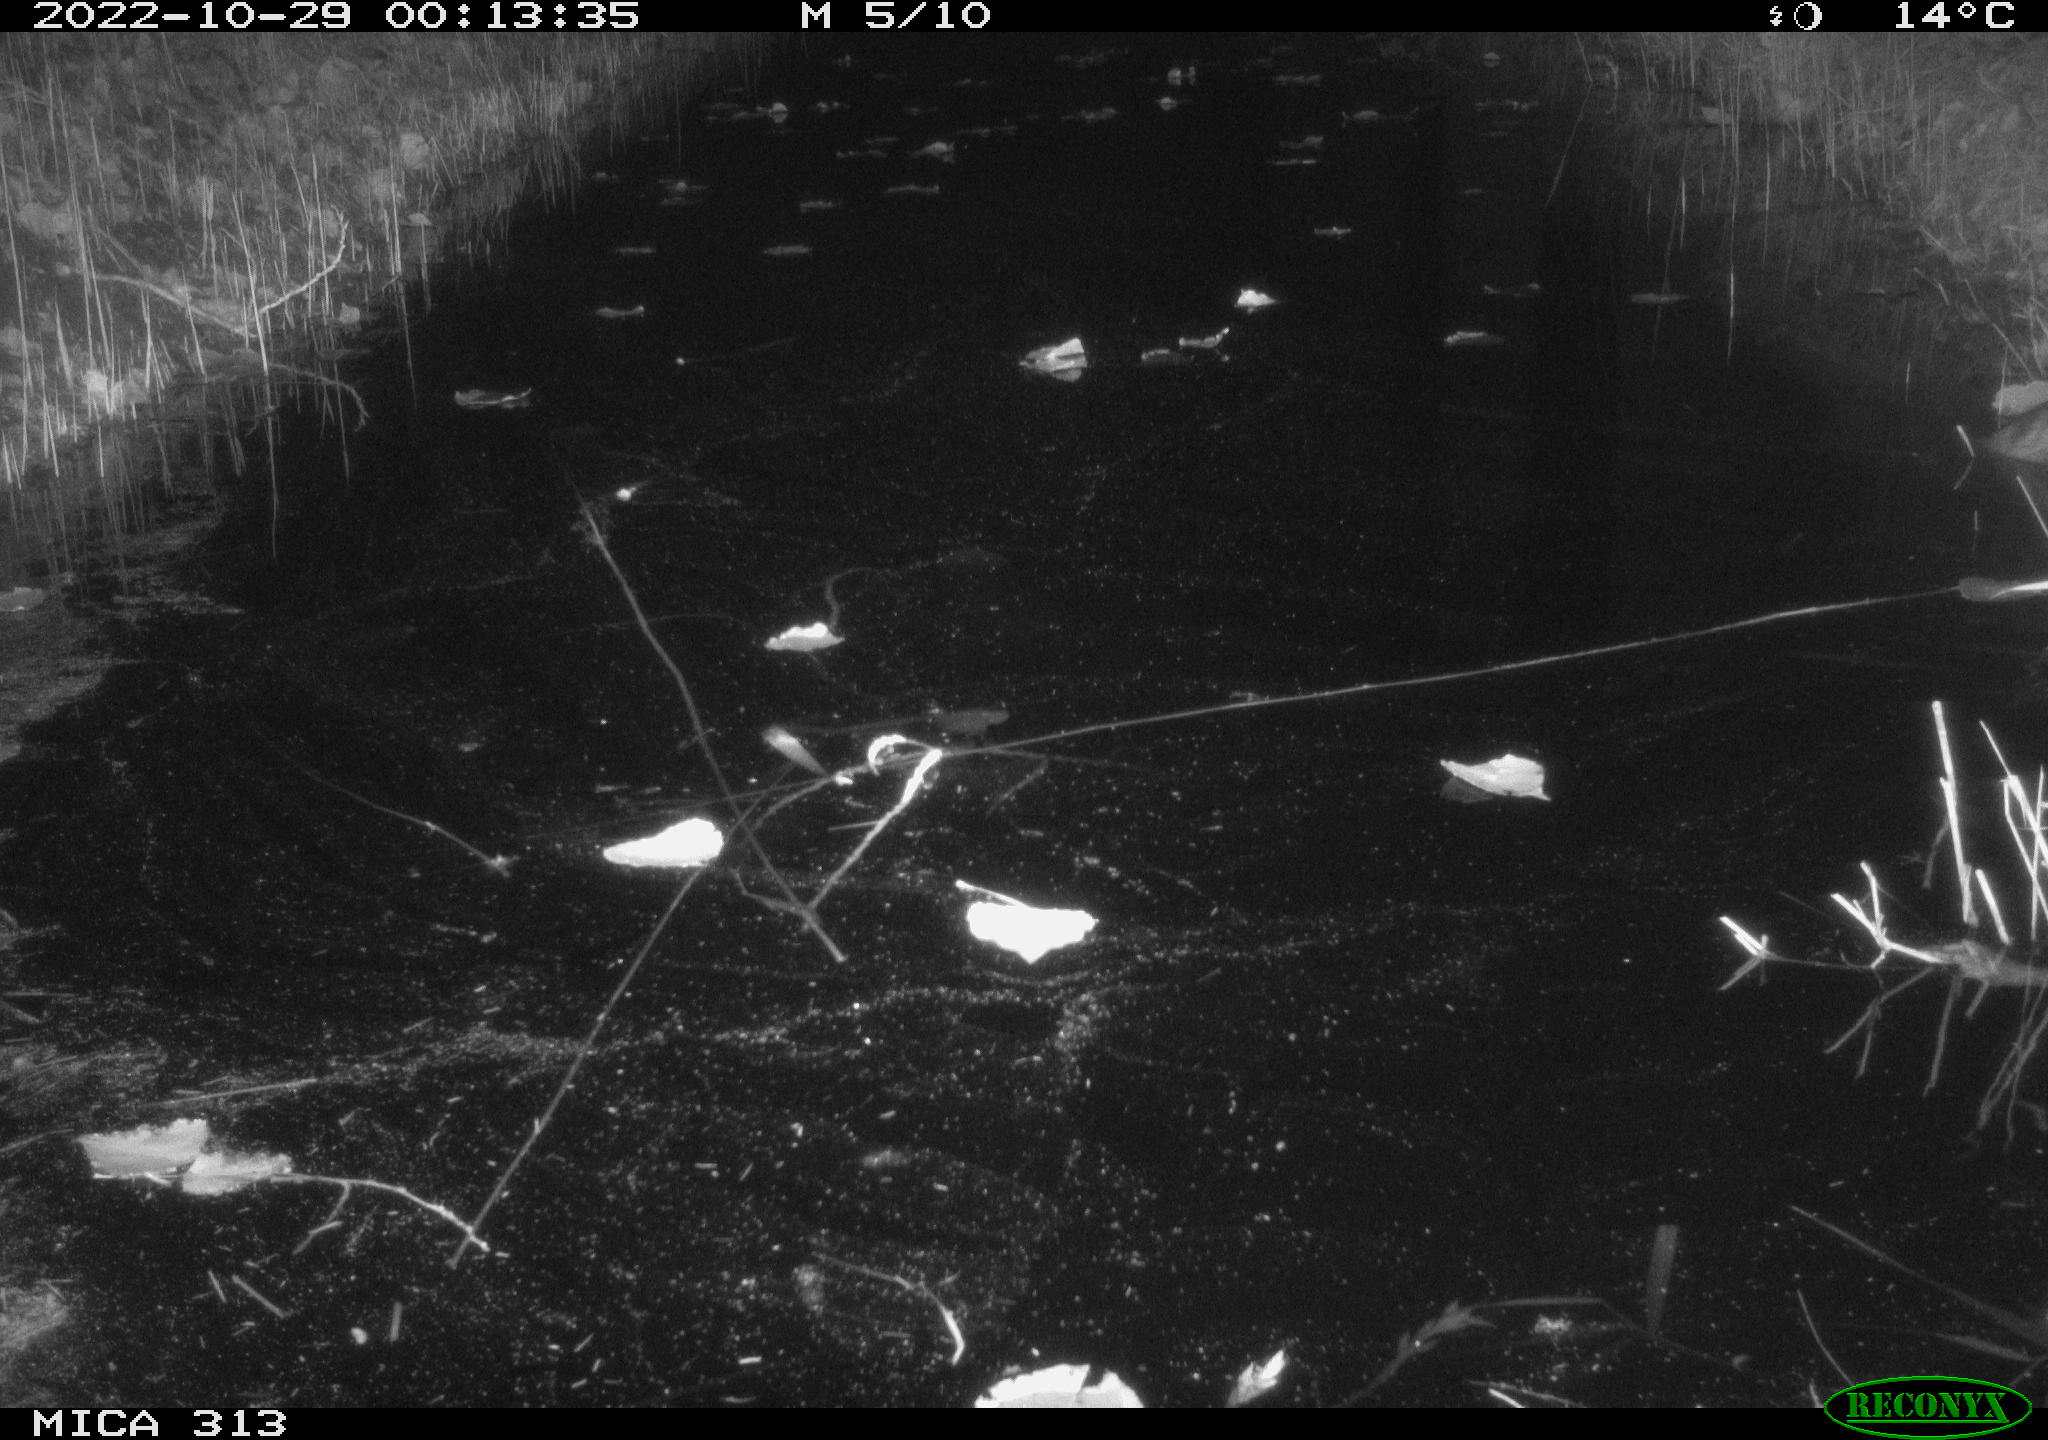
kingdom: Animalia
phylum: Chordata
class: Mammalia
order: Rodentia
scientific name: Rodentia
